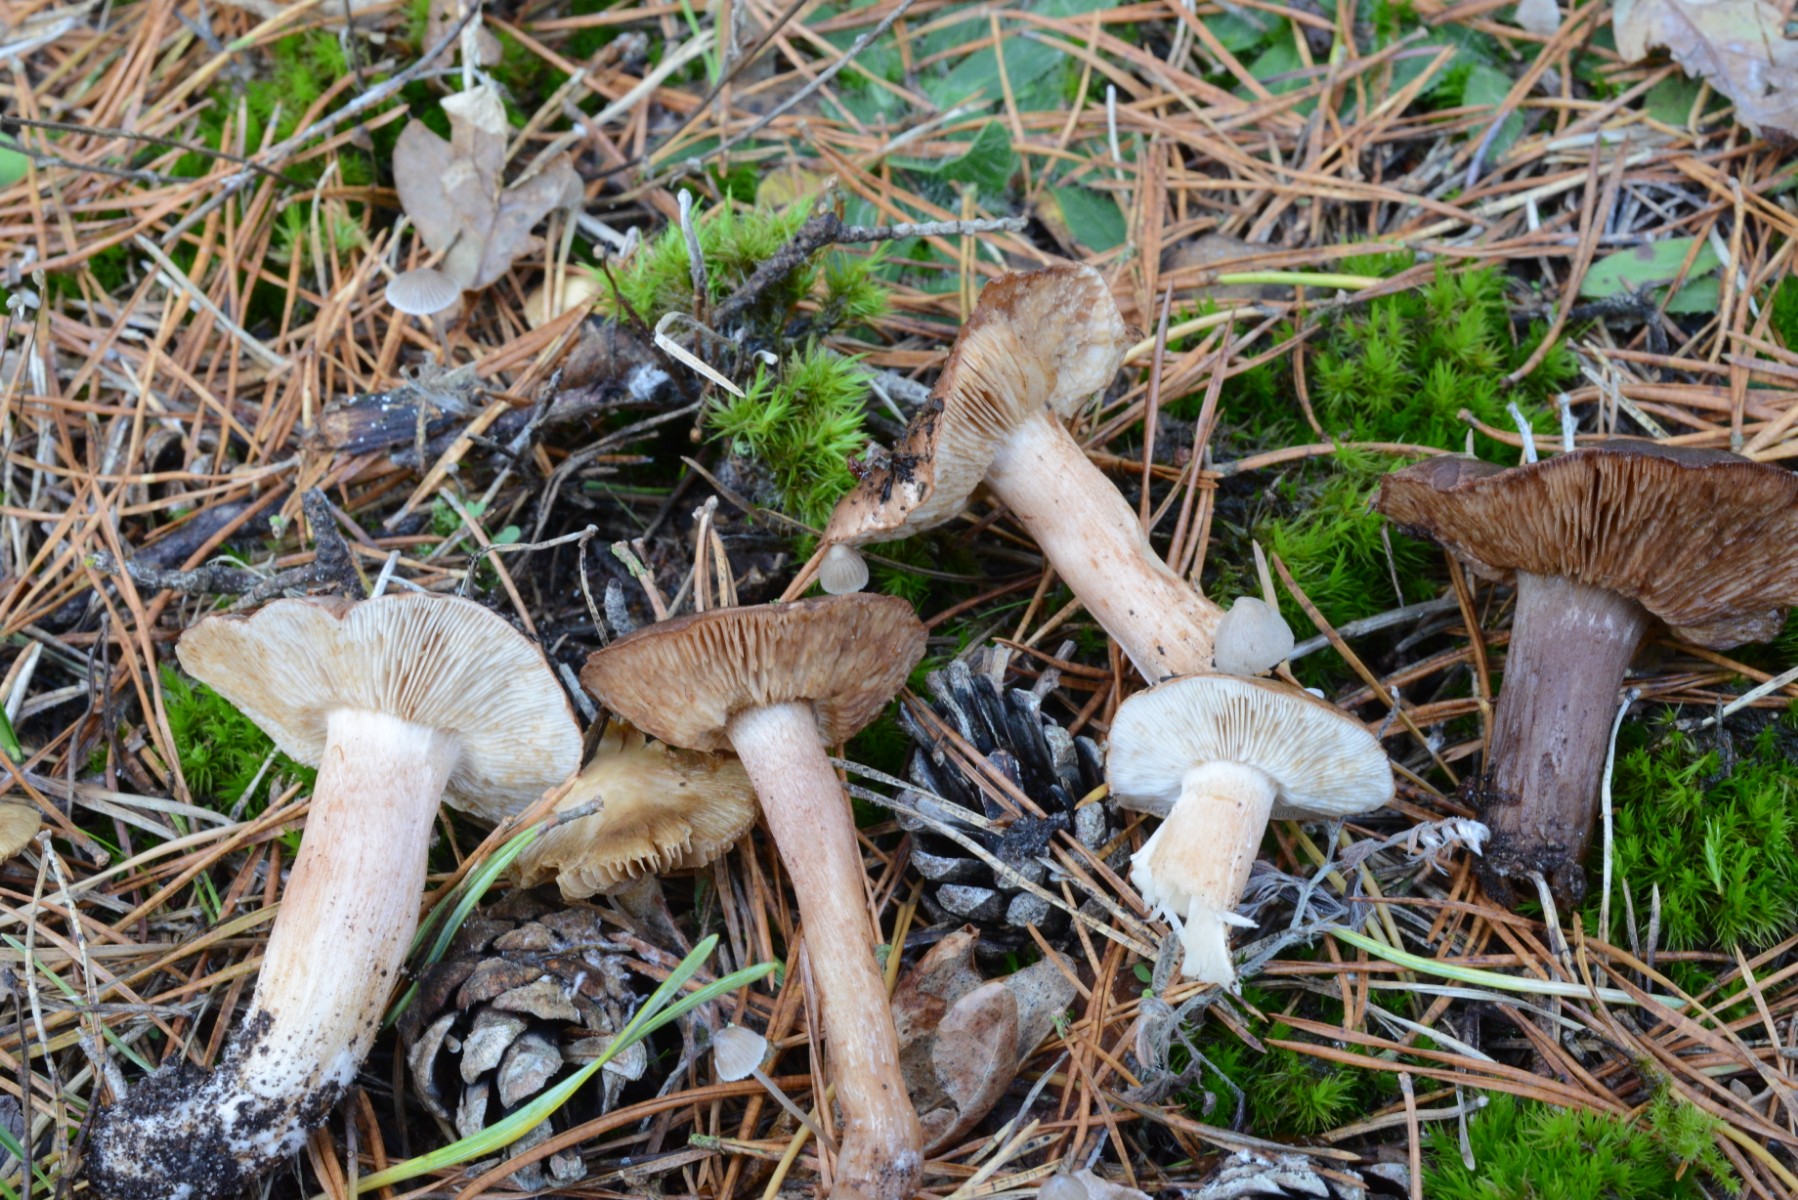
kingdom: Fungi
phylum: Basidiomycota
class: Agaricomycetes
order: Agaricales
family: Tricholomataceae
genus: Tricholoma
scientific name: Tricholoma albobrunneum
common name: kastanie-ridderhat
